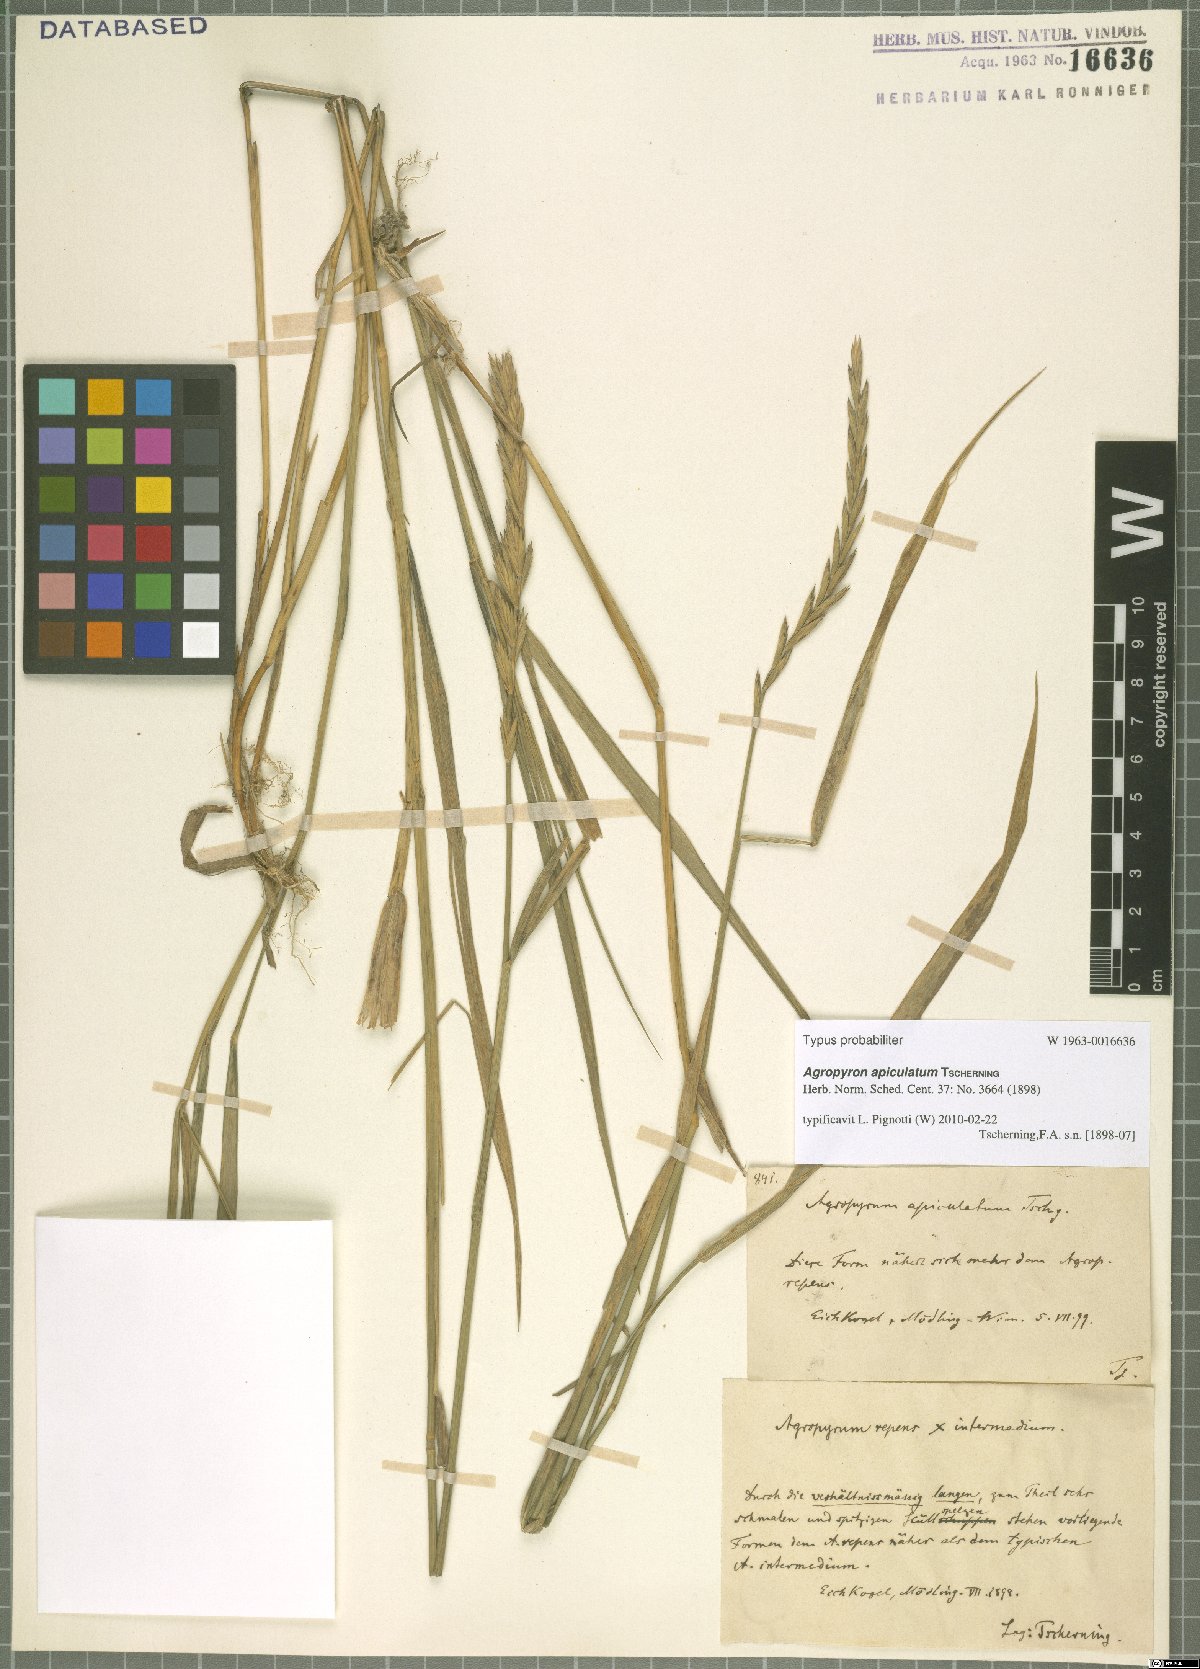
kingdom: Plantae
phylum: Tracheophyta
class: Liliopsida
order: Poales
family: Poaceae
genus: Elymus
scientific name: Elymus apiculatus
